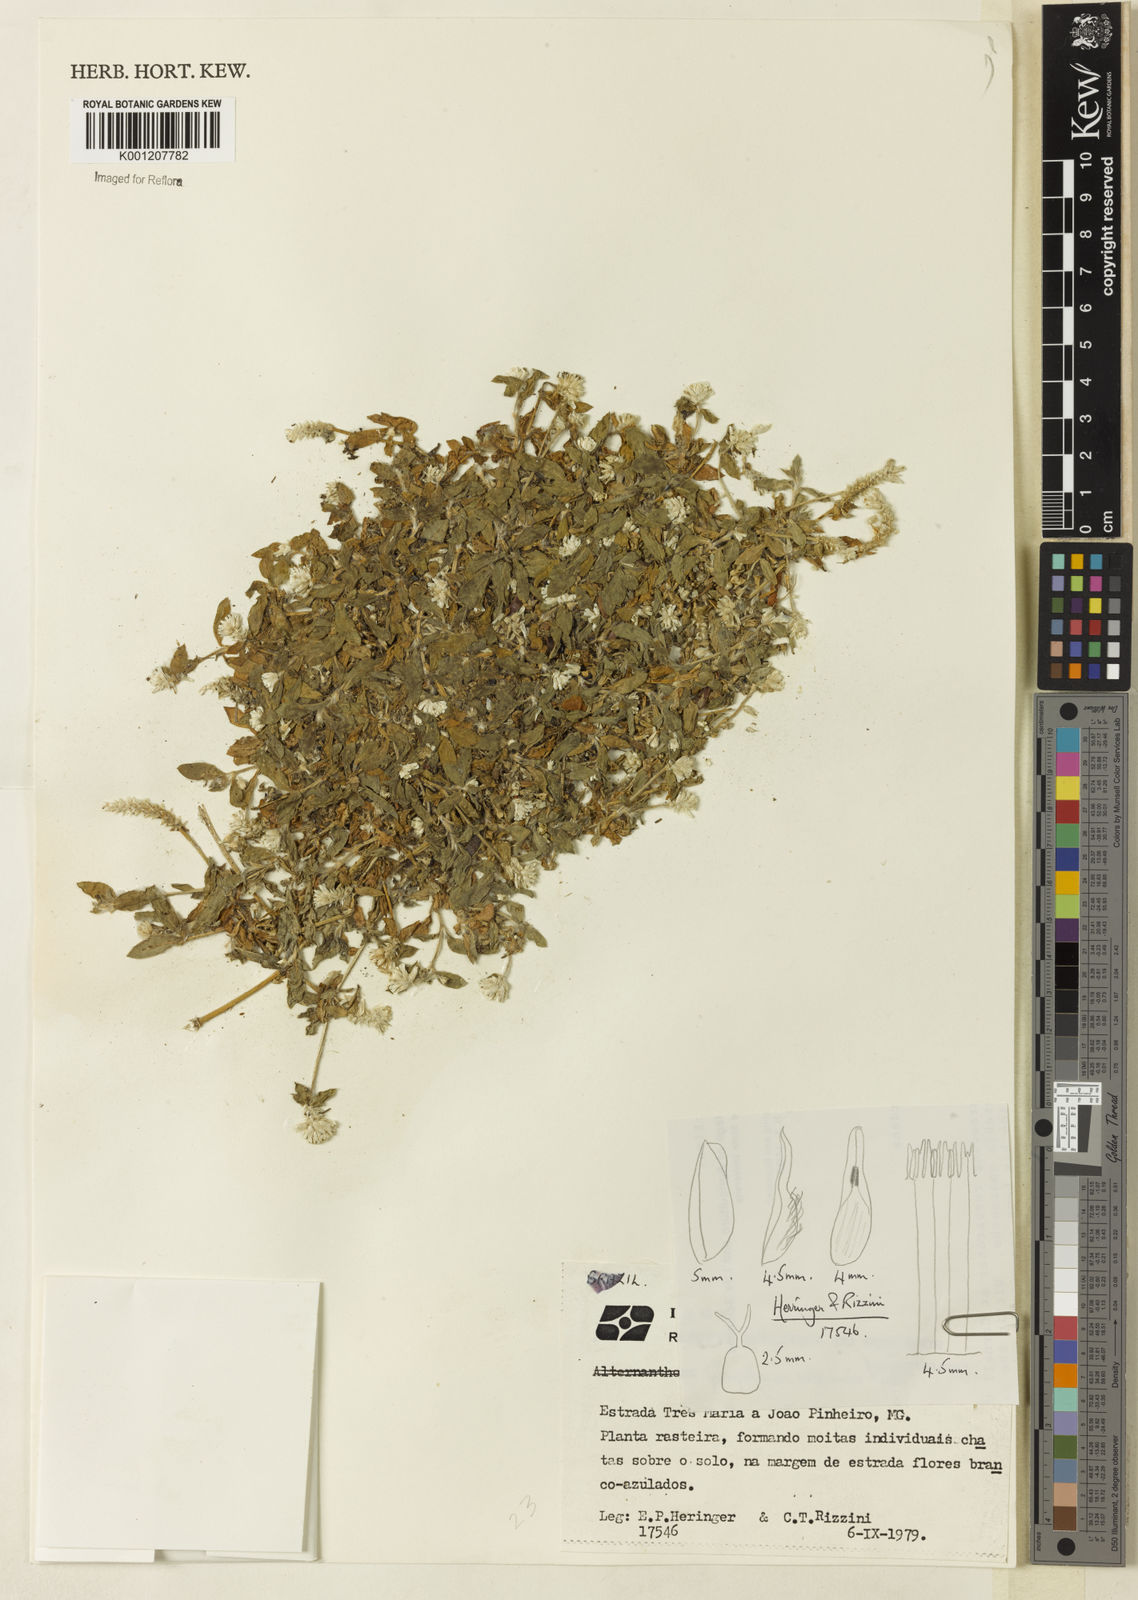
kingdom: Plantae
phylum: Tracheophyta
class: Magnoliopsida
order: Caryophyllales
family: Amaranthaceae
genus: Gomphrena
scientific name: Gomphrena celosioides
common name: Gomphrena-weed
